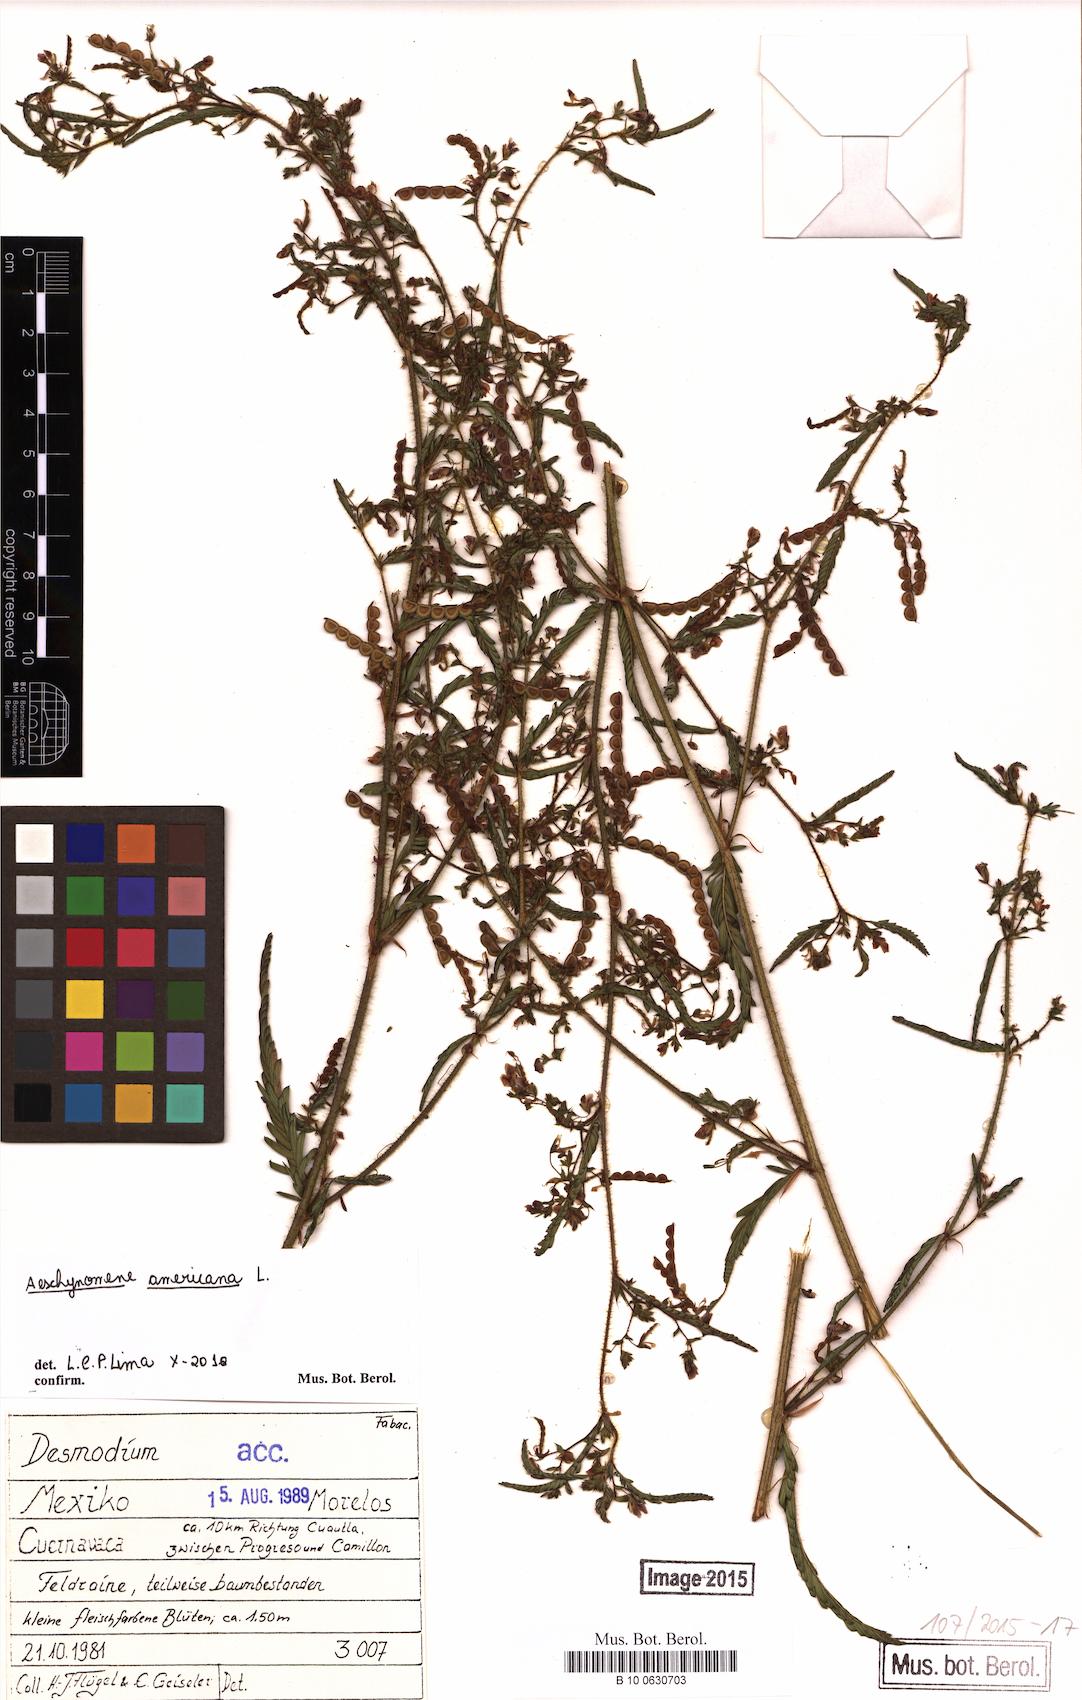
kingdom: Plantae
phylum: Tracheophyta
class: Magnoliopsida
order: Fabales
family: Fabaceae
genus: Aeschynomene
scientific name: Aeschynomene americana
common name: Joint-vetch
